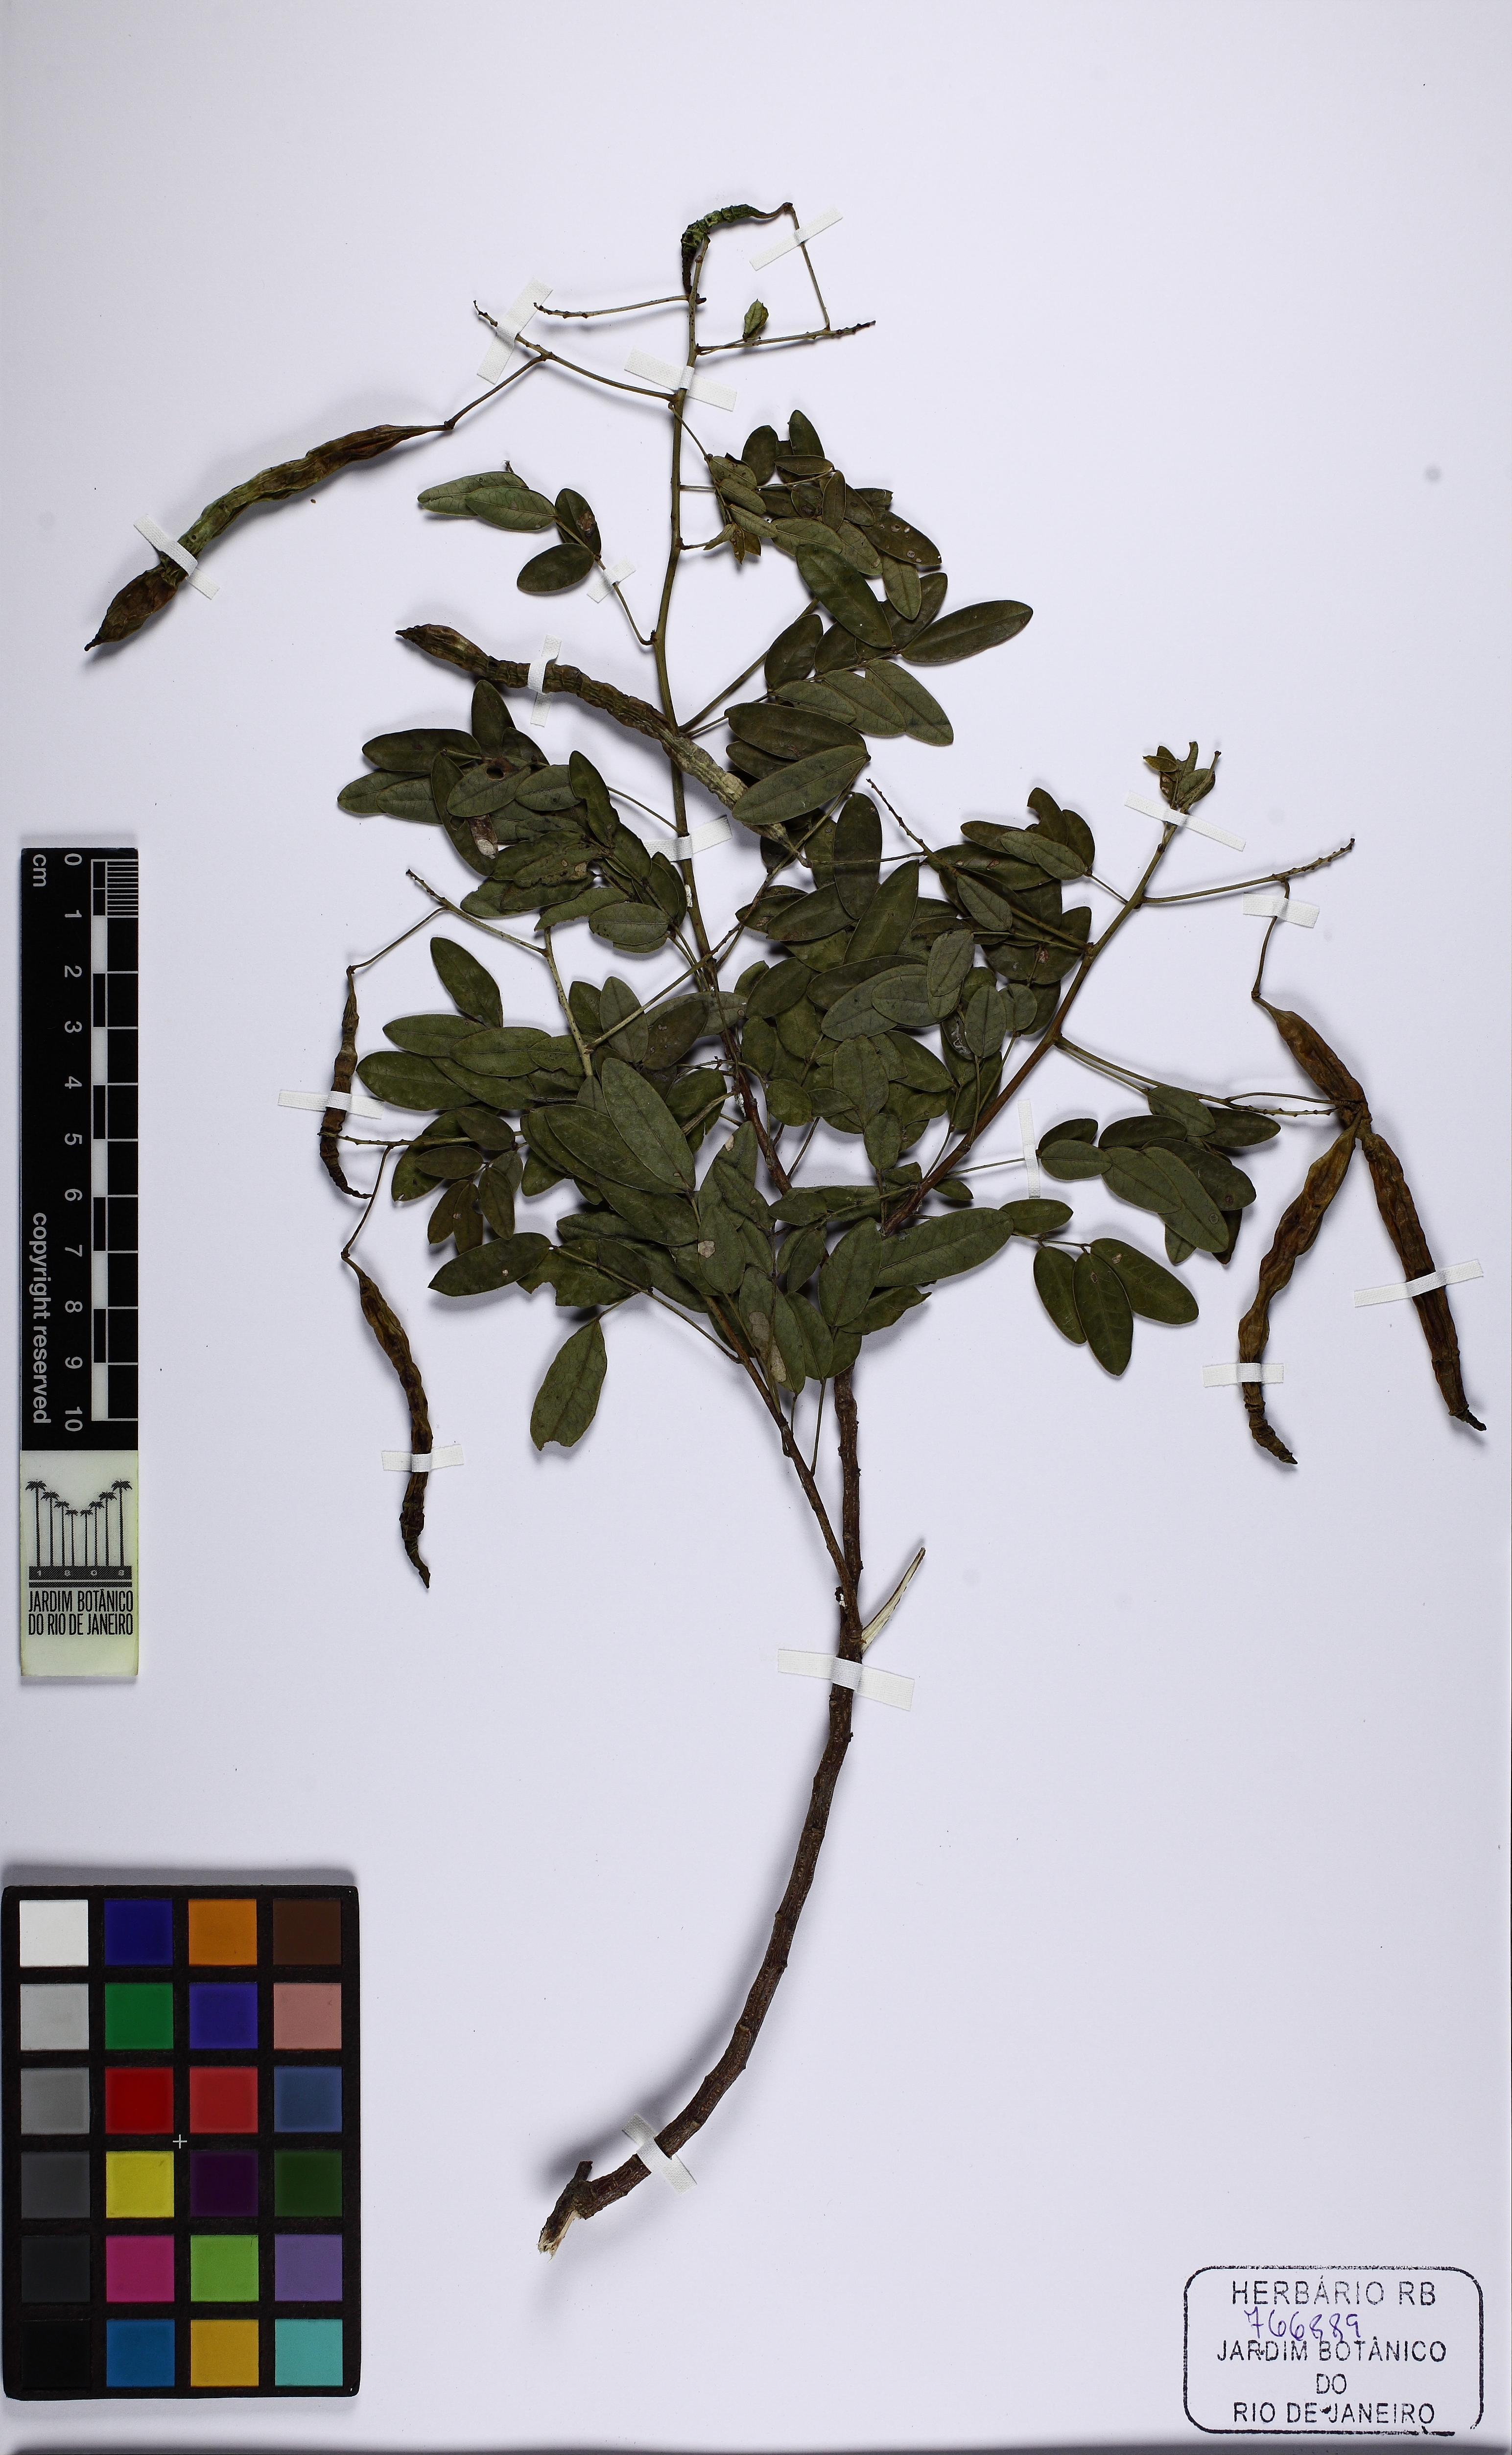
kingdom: Plantae
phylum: Tracheophyta
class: Magnoliopsida
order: Fabales
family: Fabaceae
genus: Senna
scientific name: Senna corymbosa
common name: Argentine senna
